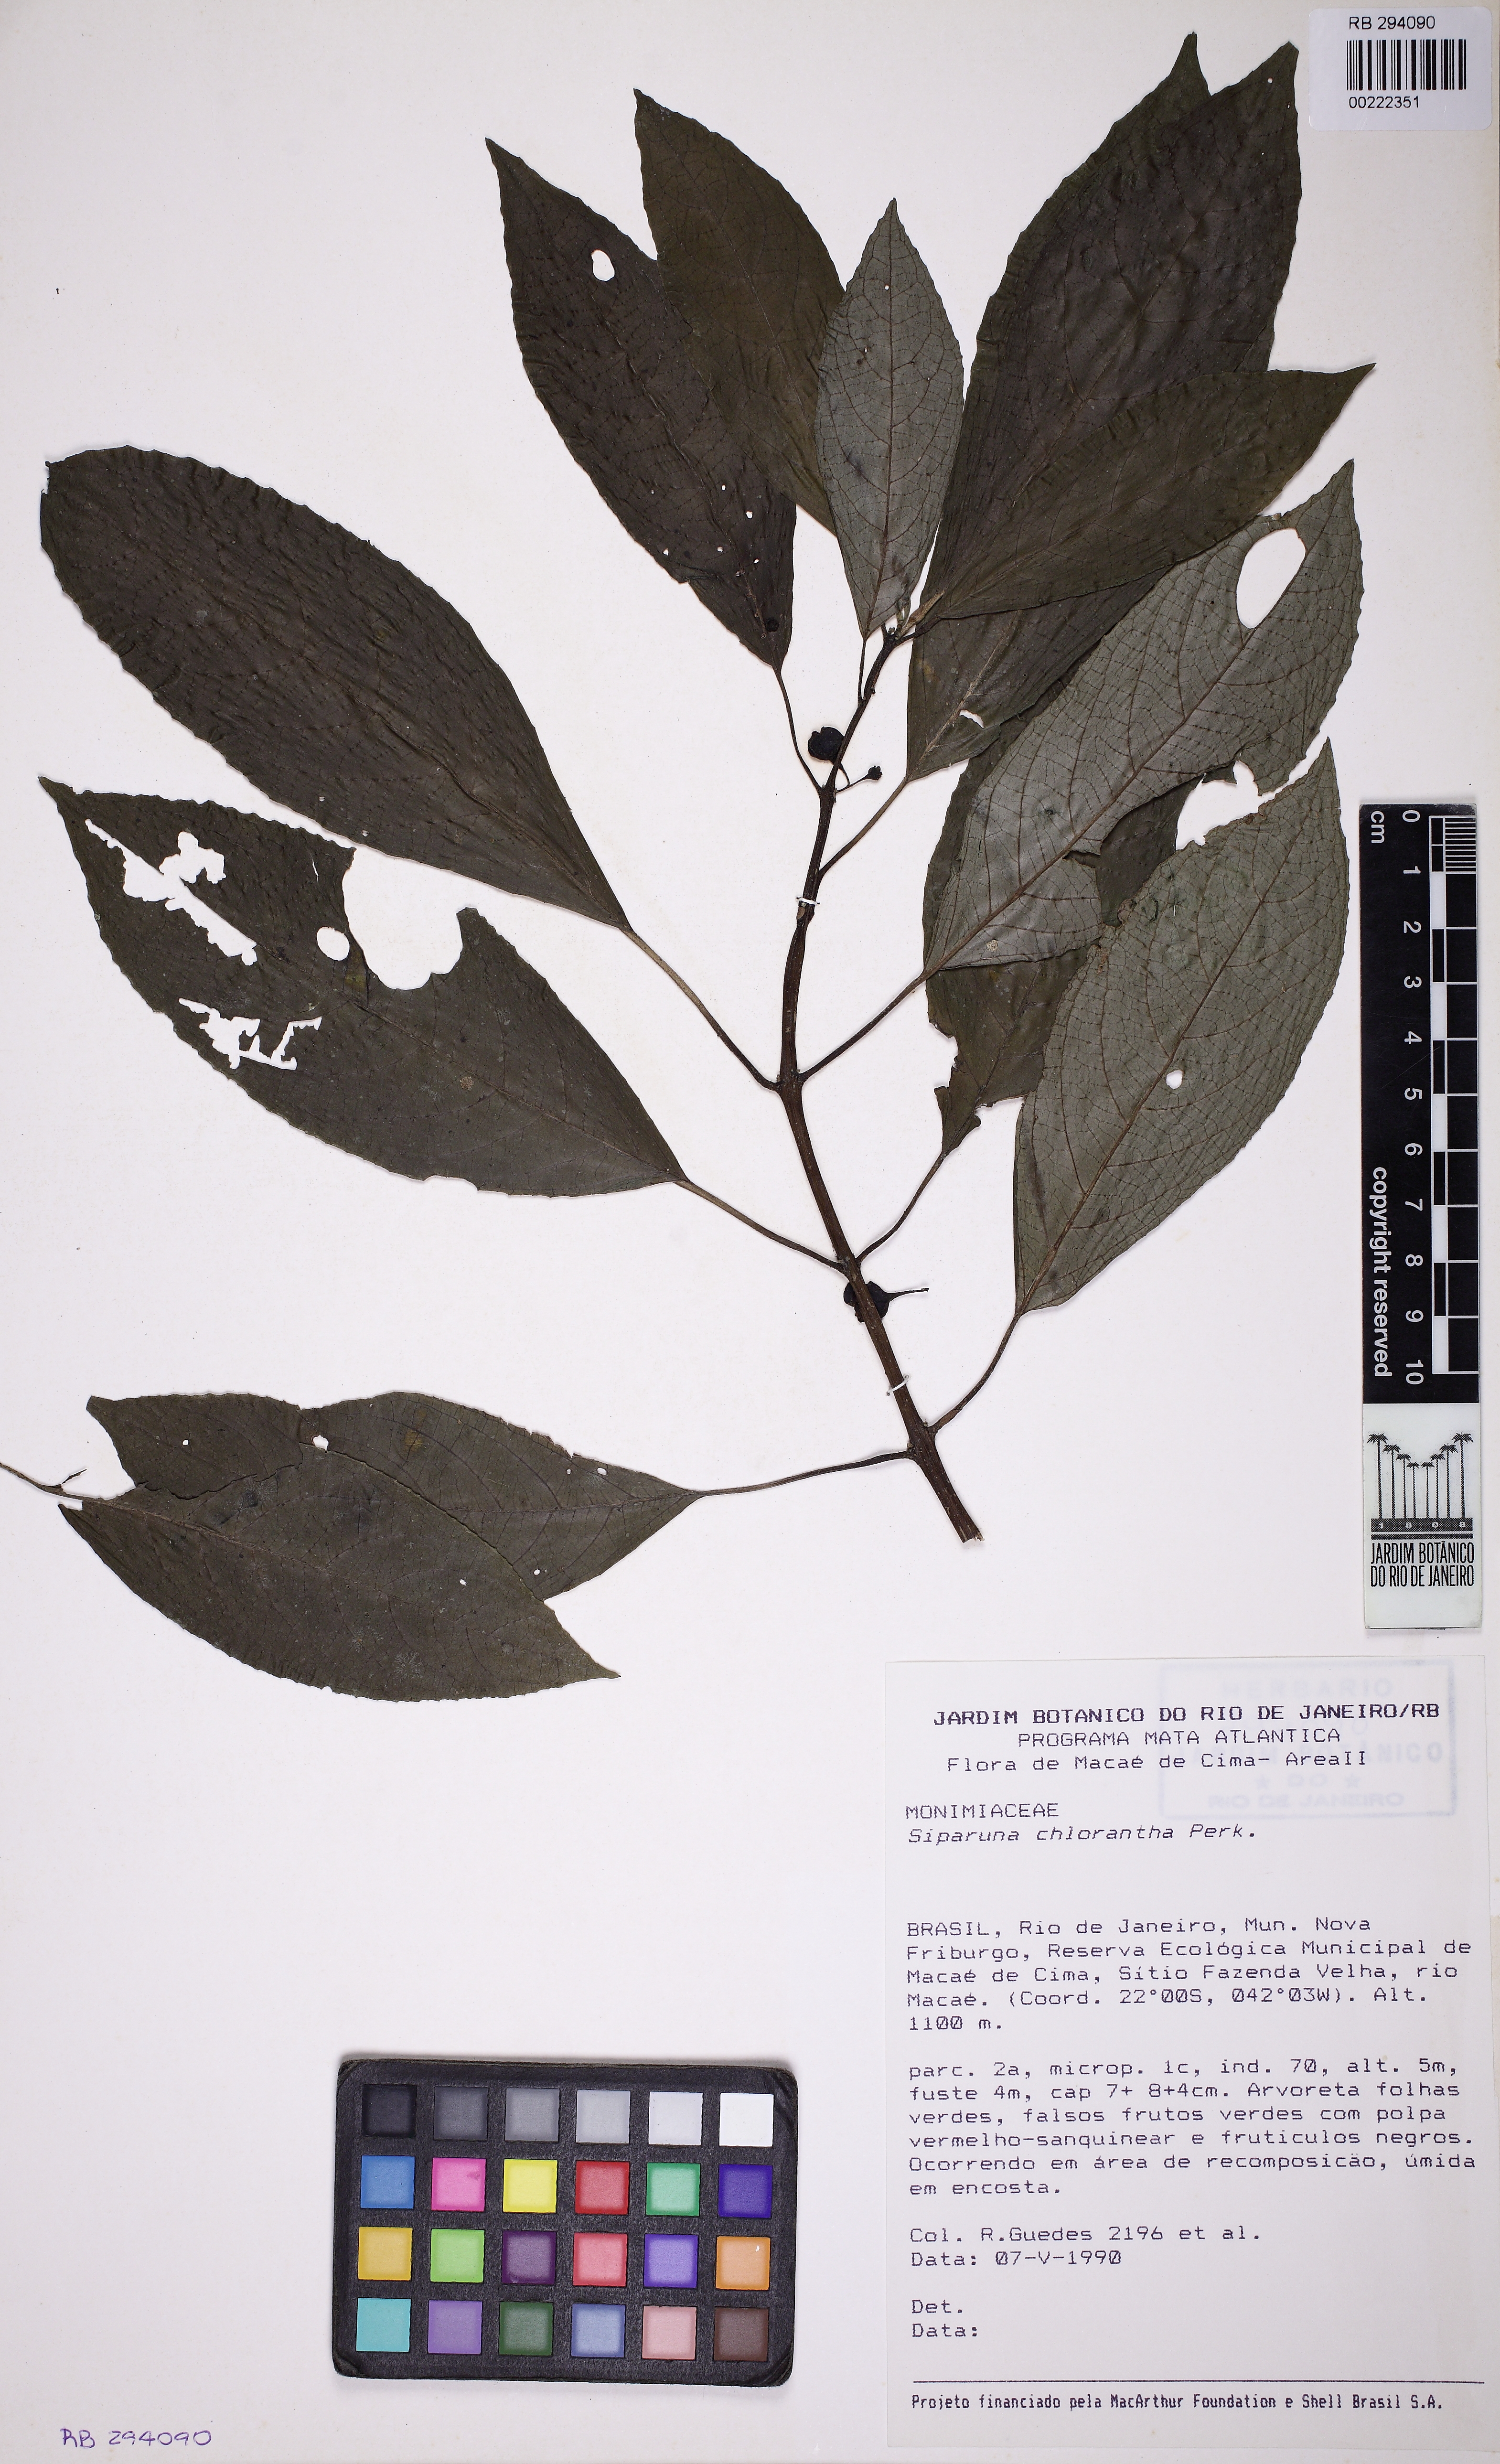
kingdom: Plantae
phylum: Tracheophyta
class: Magnoliopsida
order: Laurales
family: Siparunaceae
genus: Siparuna
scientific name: Siparuna brasiliensis
